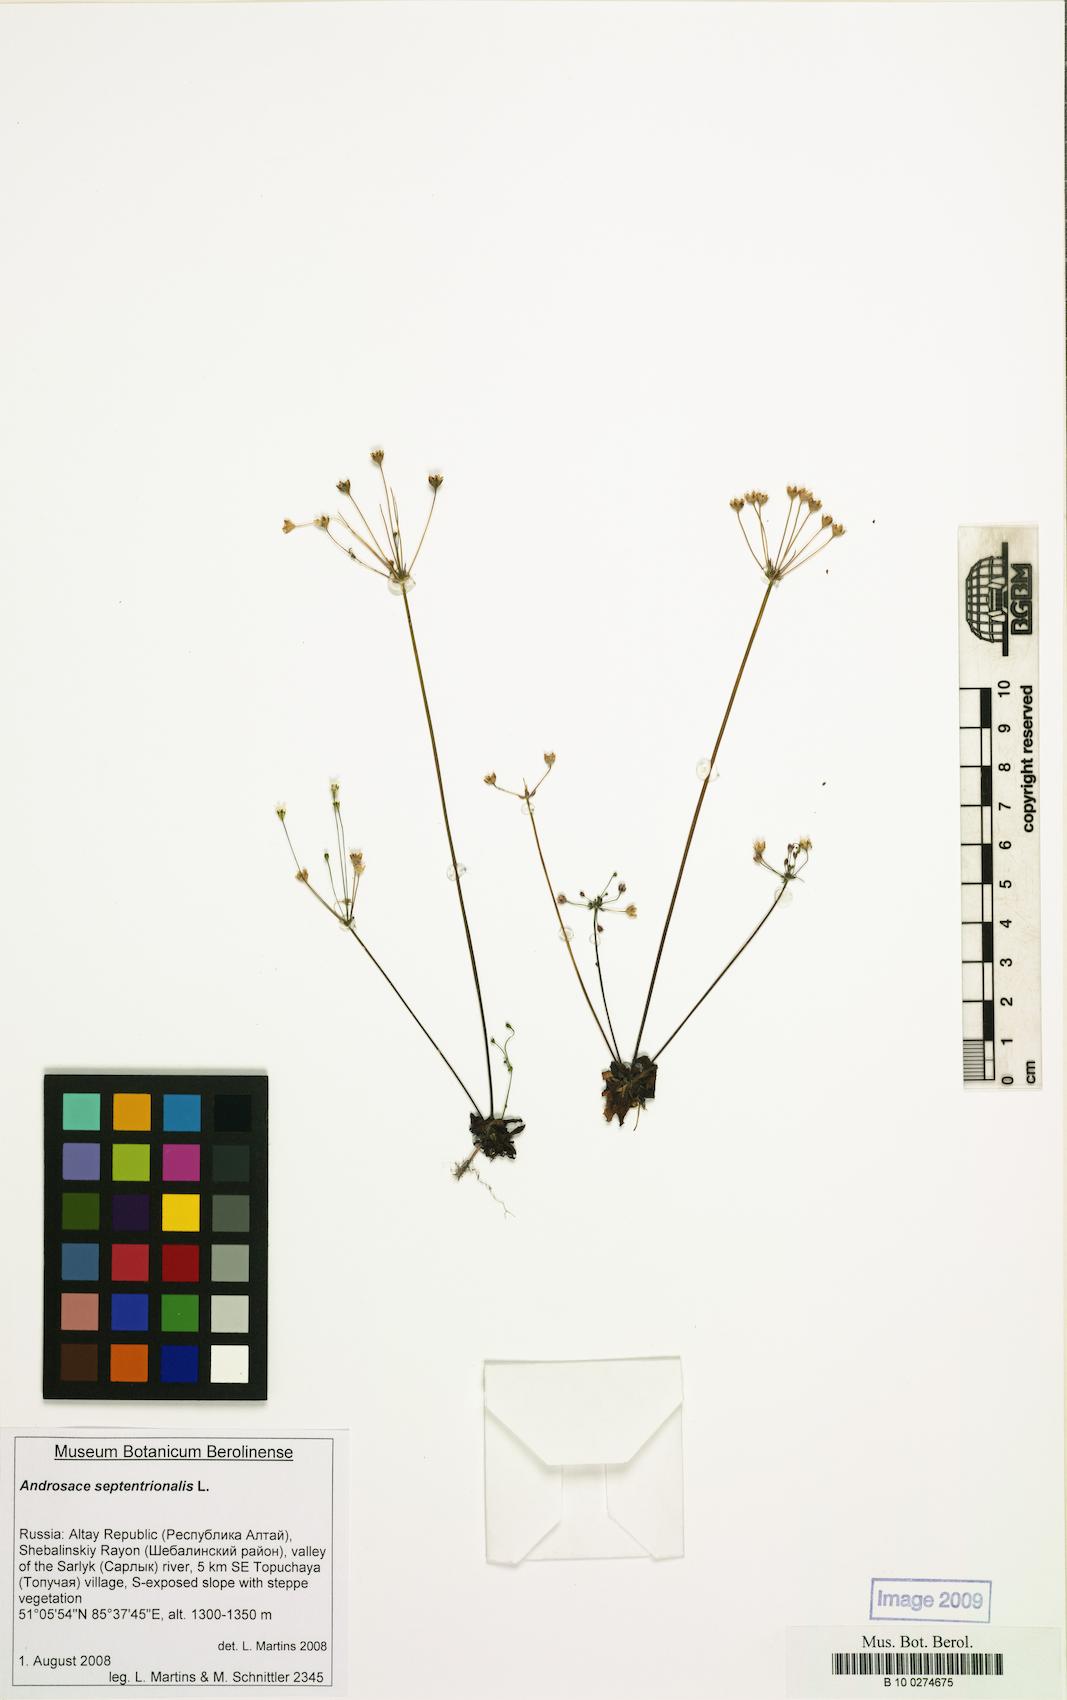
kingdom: Plantae
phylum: Tracheophyta
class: Magnoliopsida
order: Ericales
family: Primulaceae
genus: Androsace
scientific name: Androsace septentrionalis
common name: Hairy northern fairy-candelabra
